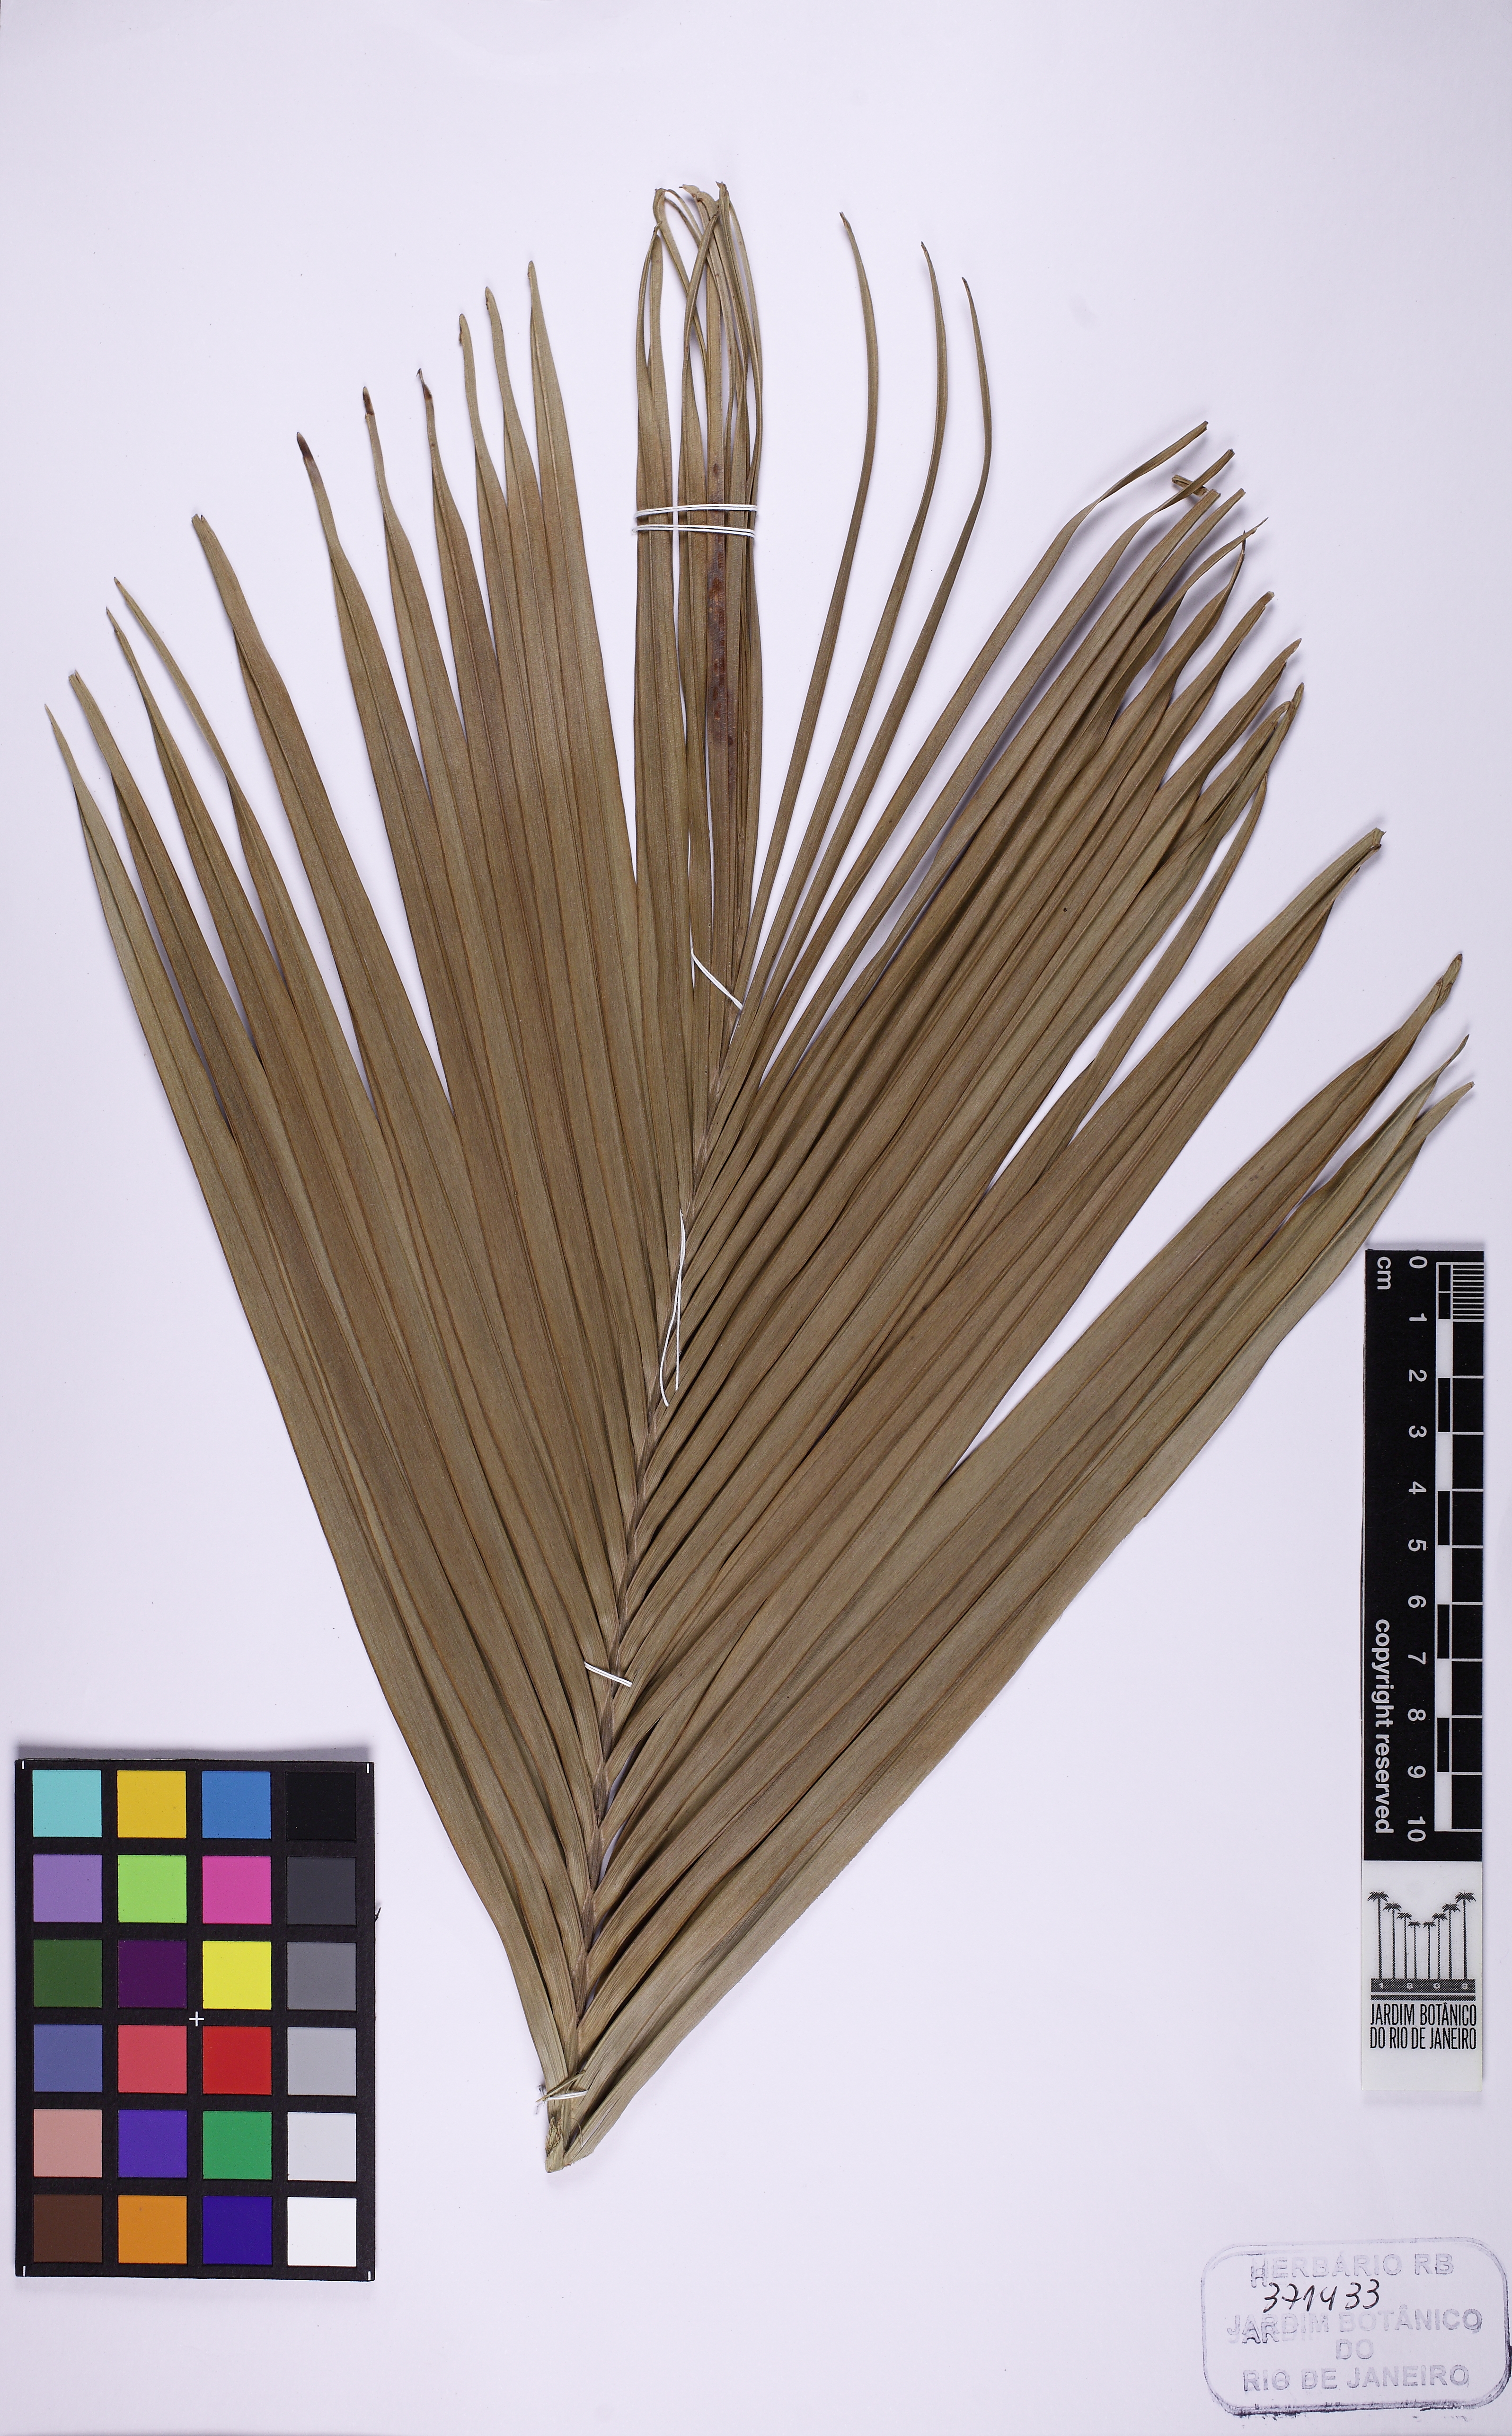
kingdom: Plantae
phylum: Tracheophyta
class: Liliopsida
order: Arecales
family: Arecaceae
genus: Attalea
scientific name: Attalea geraensis
